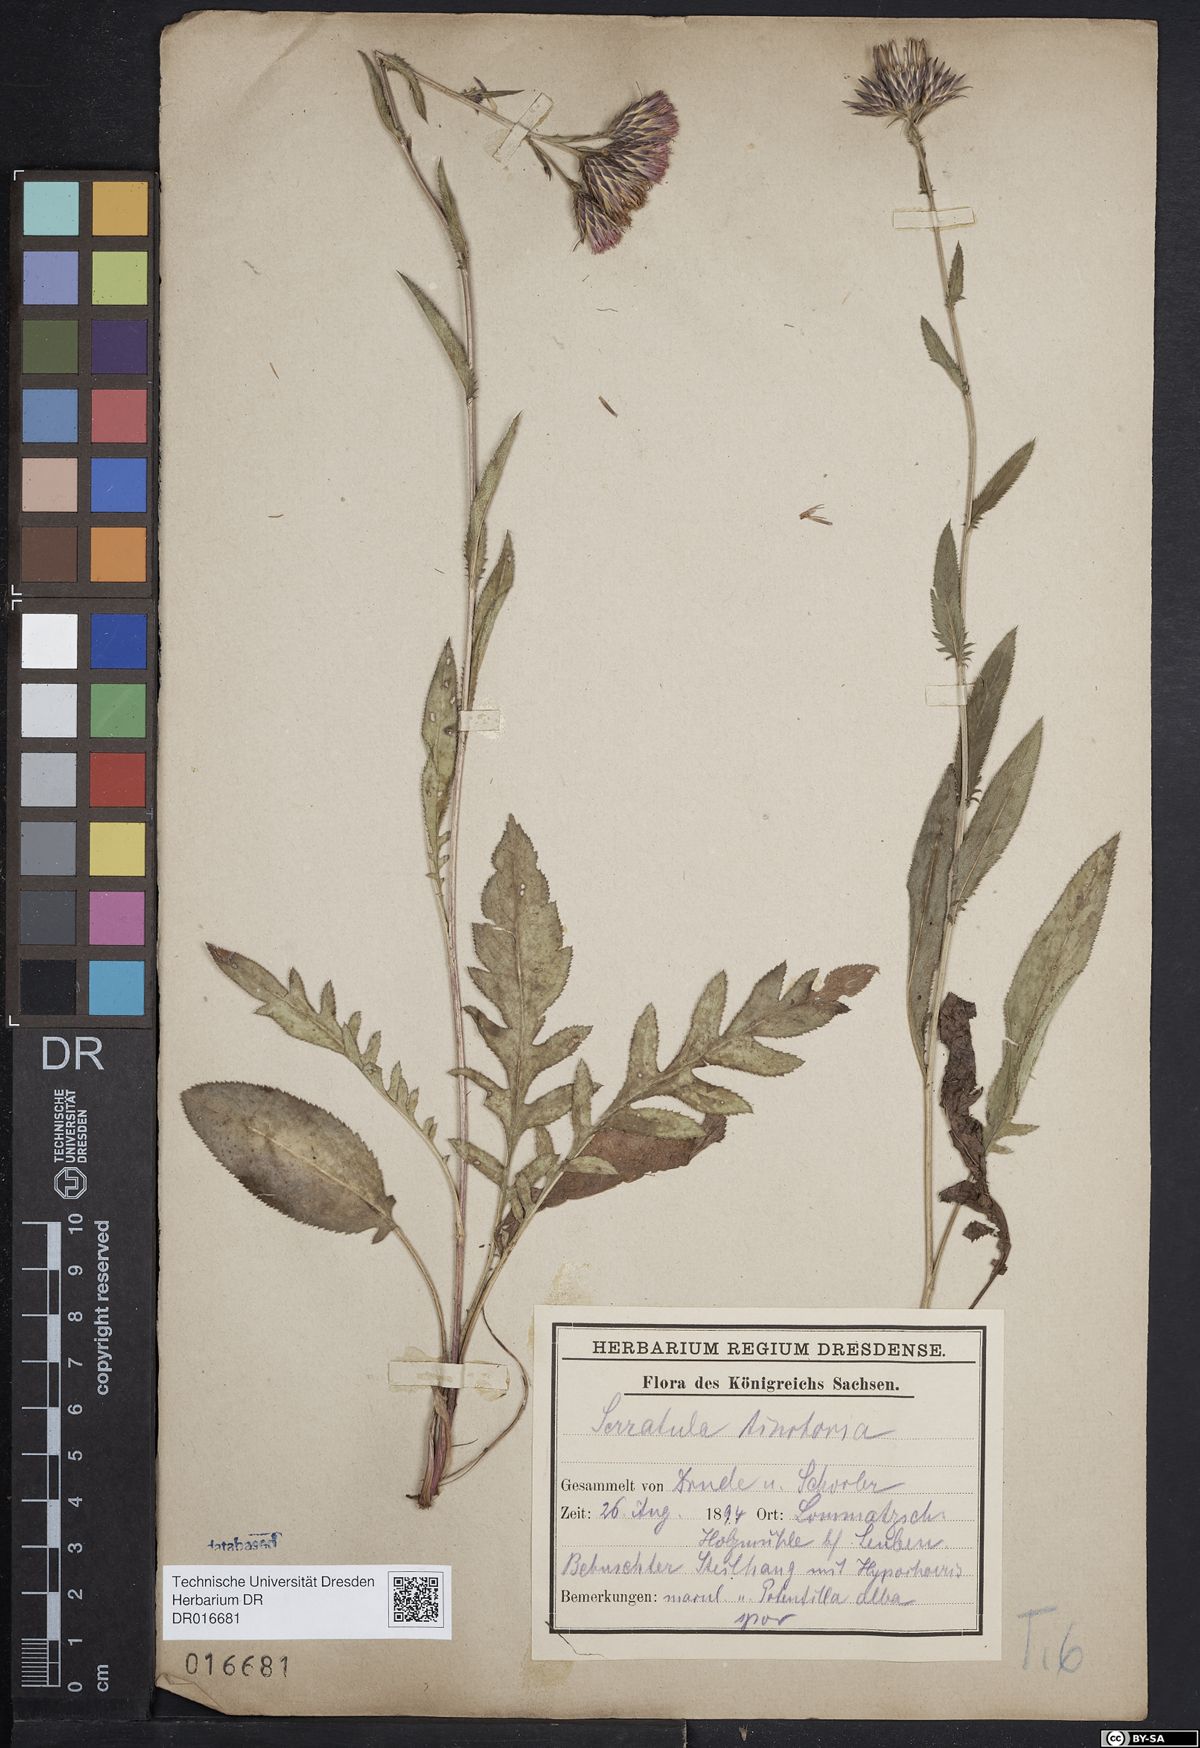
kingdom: Plantae
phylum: Tracheophyta
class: Magnoliopsida
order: Asterales
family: Asteraceae
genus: Serratula
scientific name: Serratula tinctoria
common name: Saw-wort
